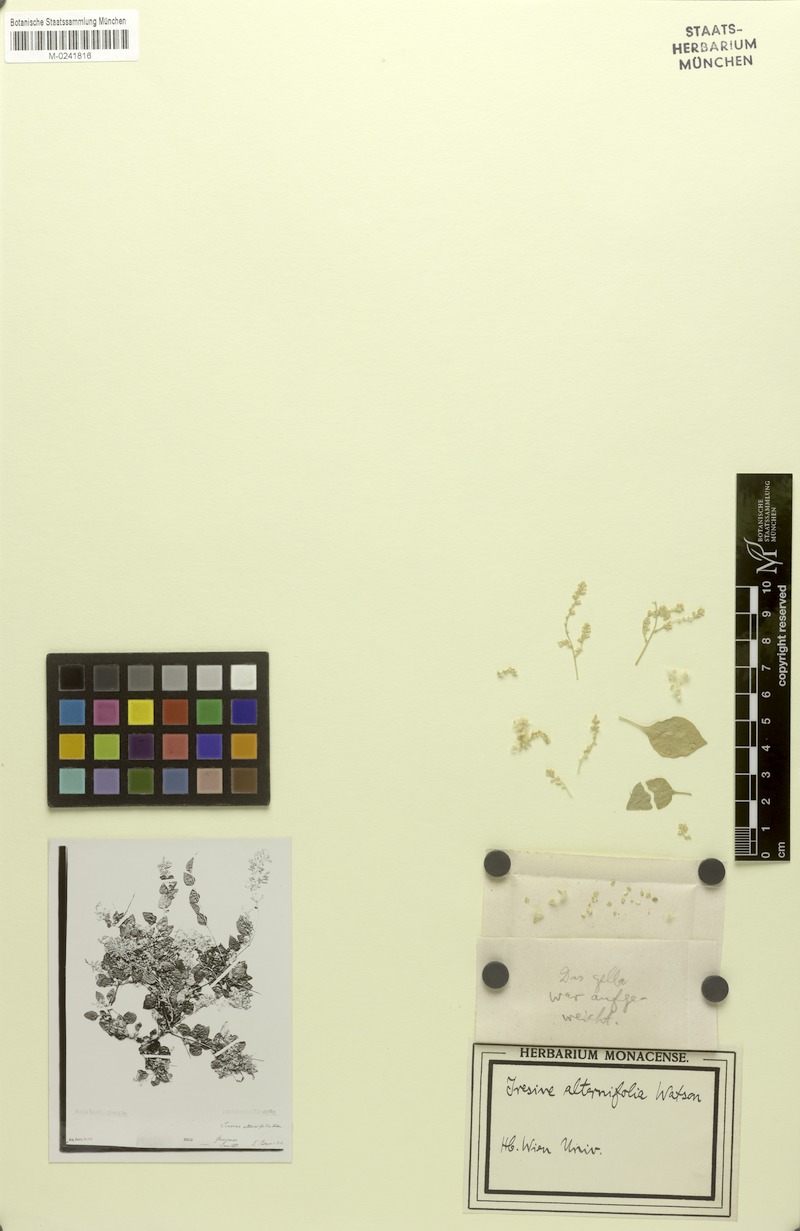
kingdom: Plantae
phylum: Tracheophyta
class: Magnoliopsida
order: Caryophyllales
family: Amaranthaceae
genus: Iresine
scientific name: Iresine alternifolia
